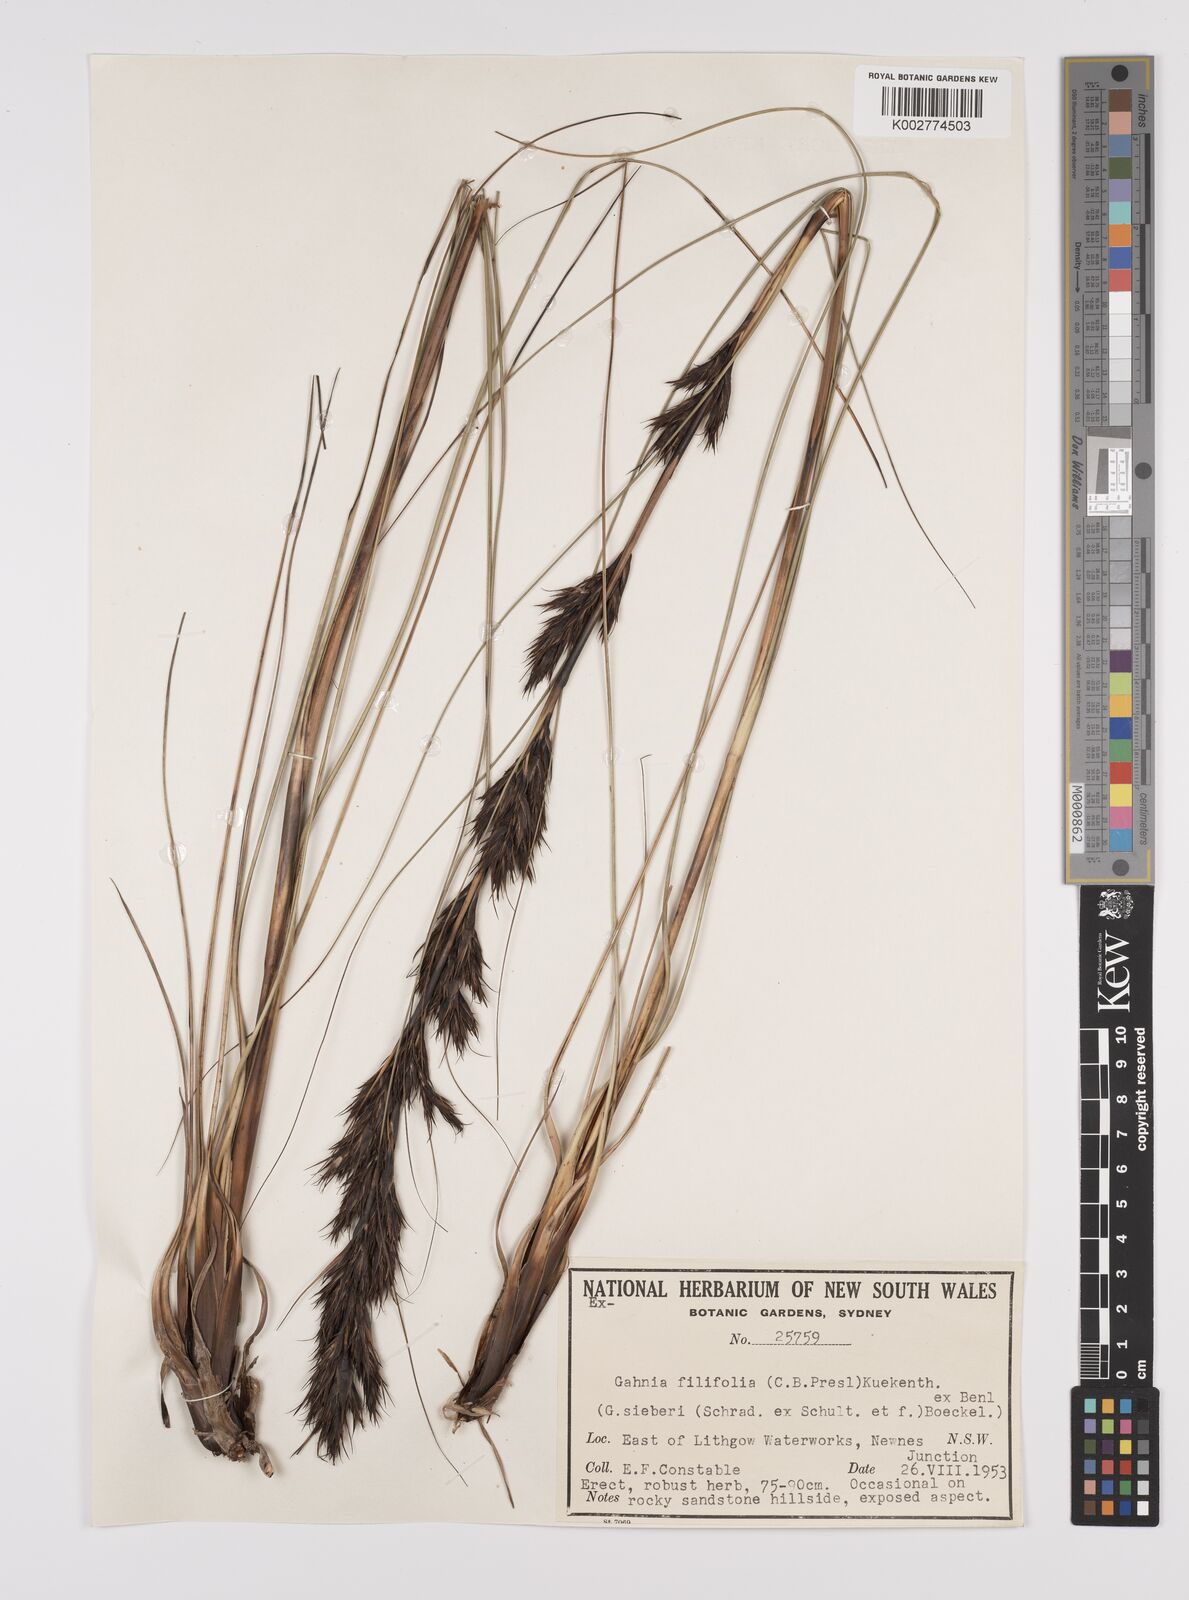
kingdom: Plantae
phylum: Tracheophyta
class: Liliopsida
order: Poales
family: Cyperaceae
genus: Gahnia
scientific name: Gahnia filifolia
